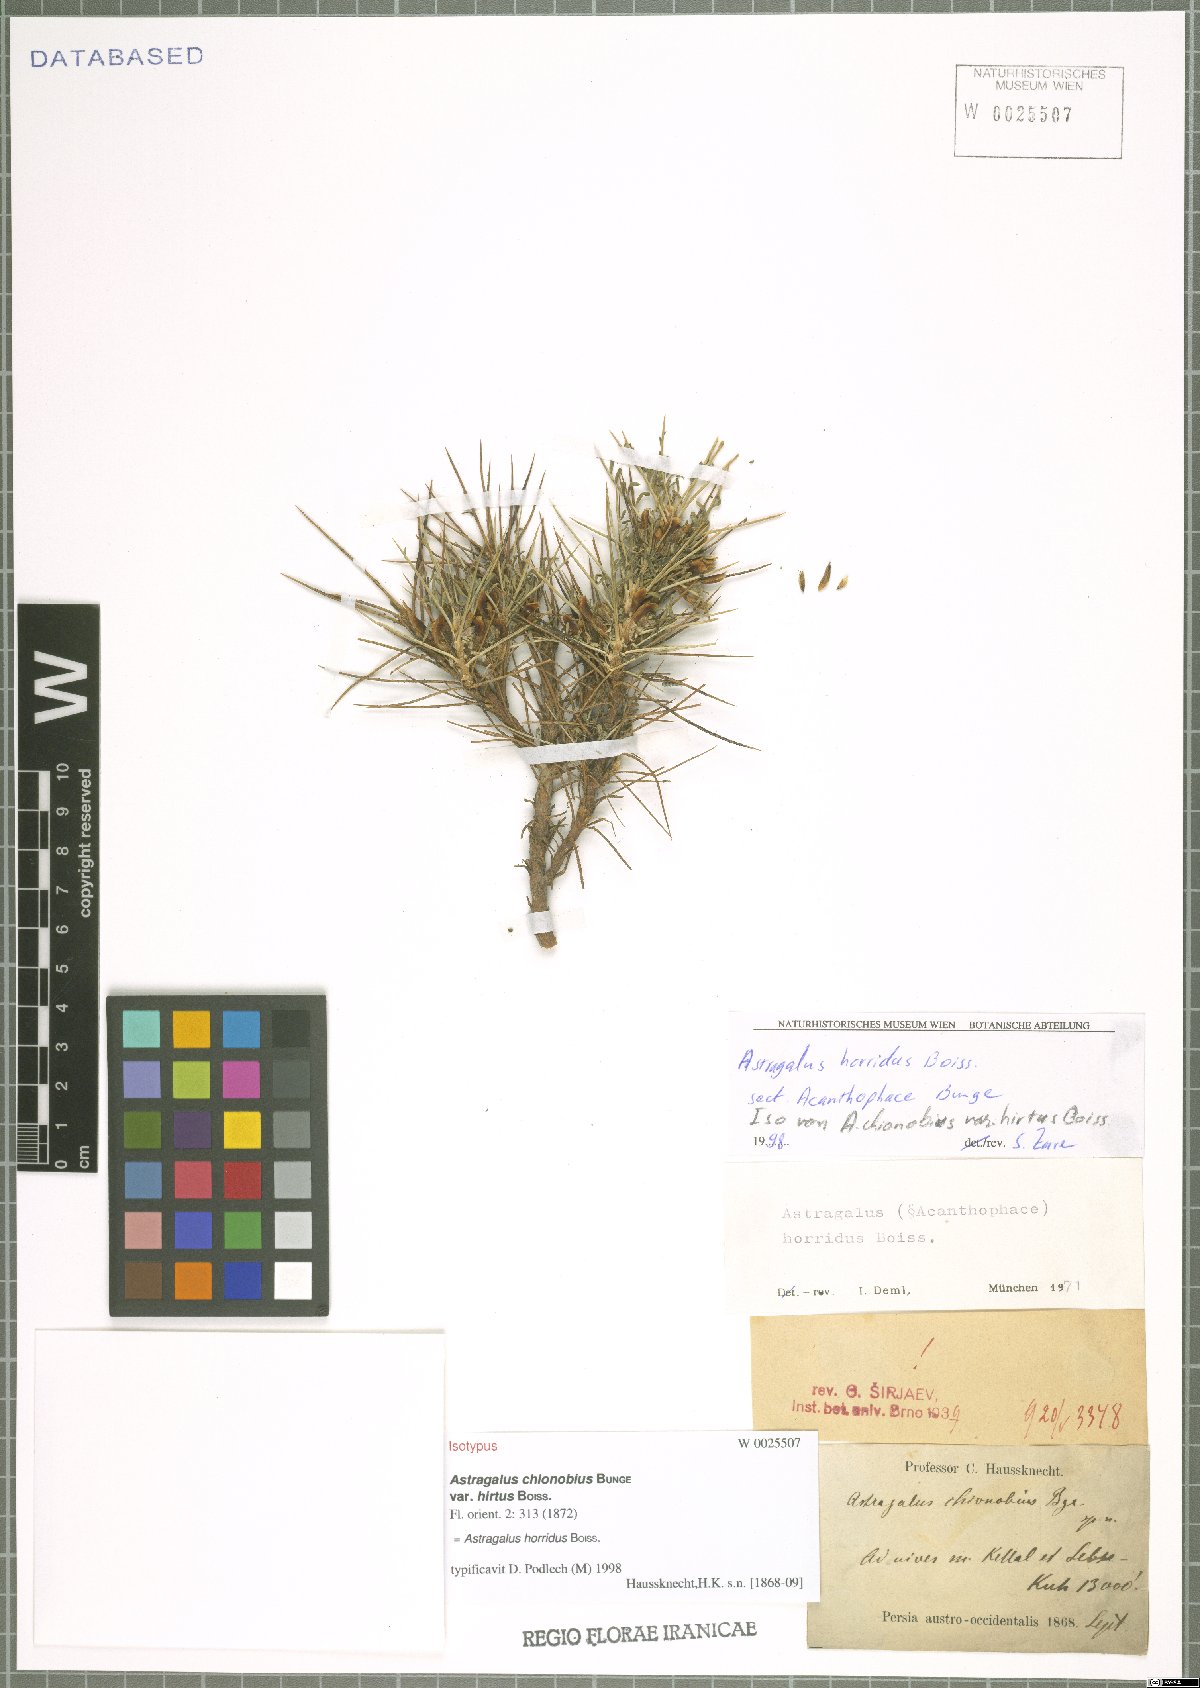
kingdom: Plantae
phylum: Tracheophyta
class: Magnoliopsida
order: Fabales
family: Fabaceae
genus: Astragalus
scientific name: Astragalus horridus
